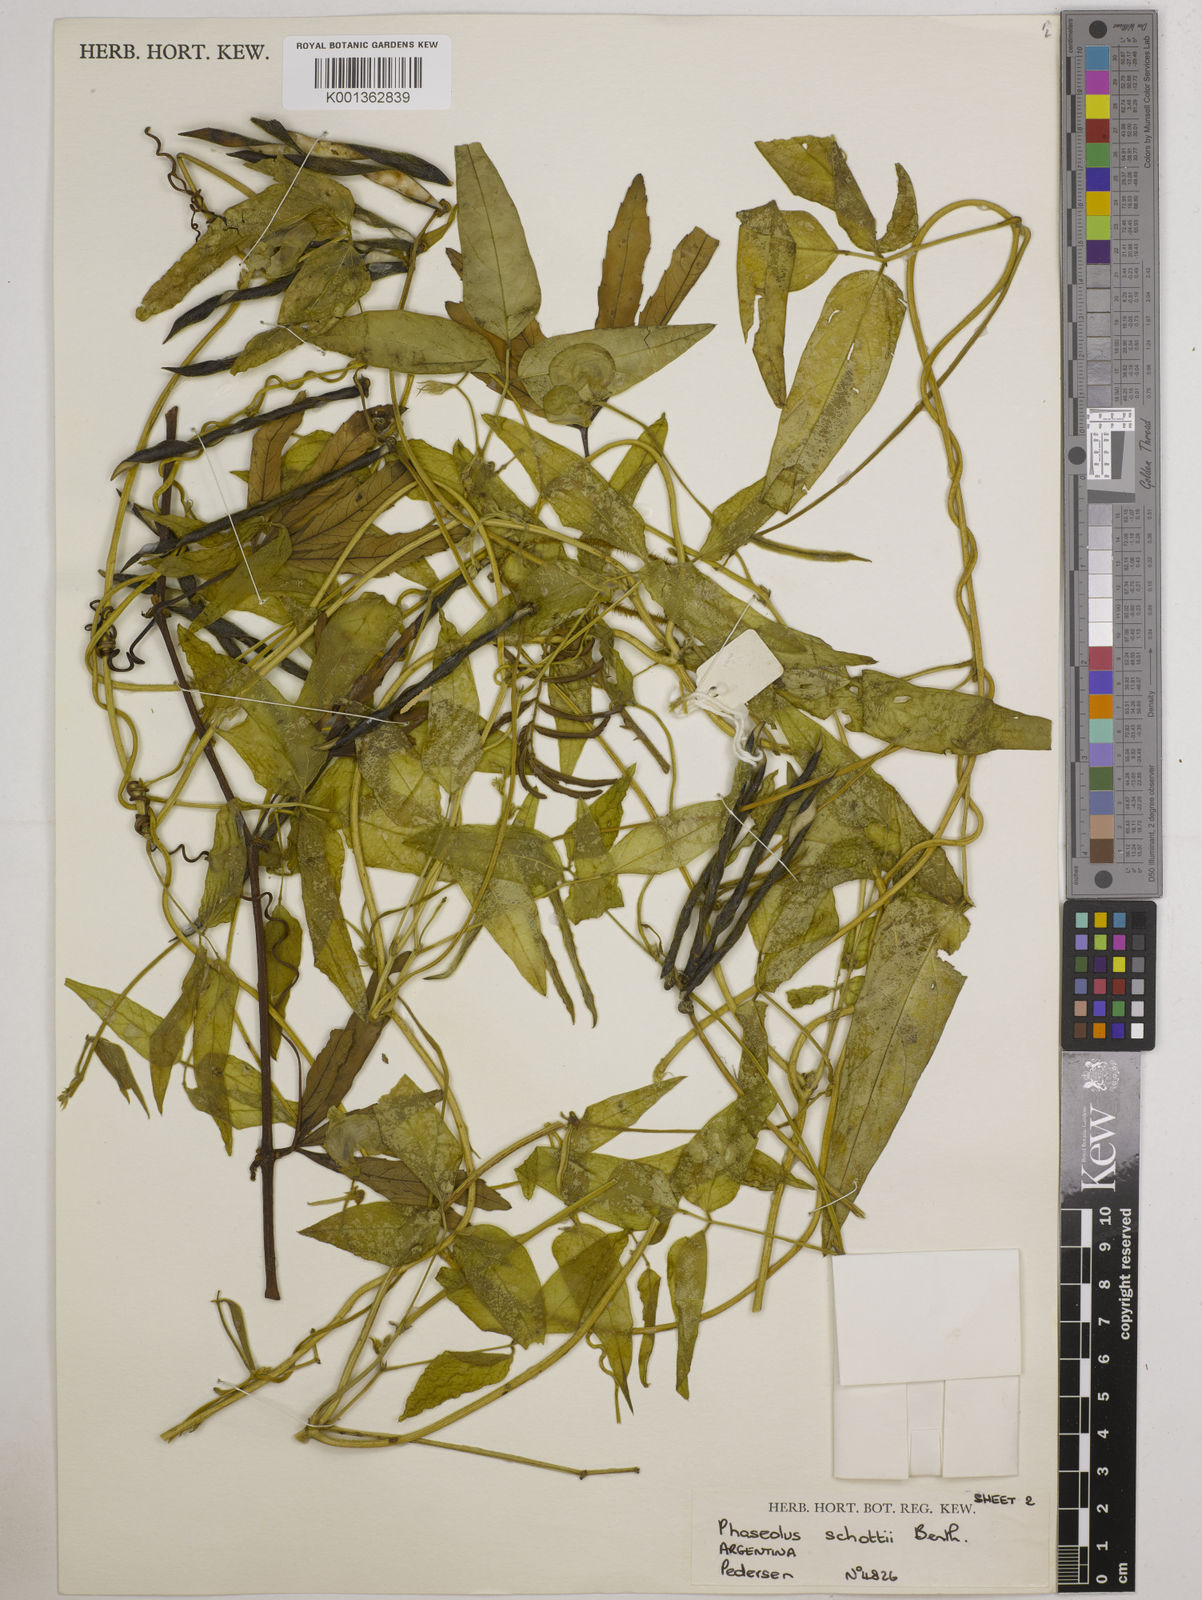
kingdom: Plantae
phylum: Tracheophyta
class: Magnoliopsida
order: Fabales
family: Fabaceae
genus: Vigna
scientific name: Vigna longifolia
